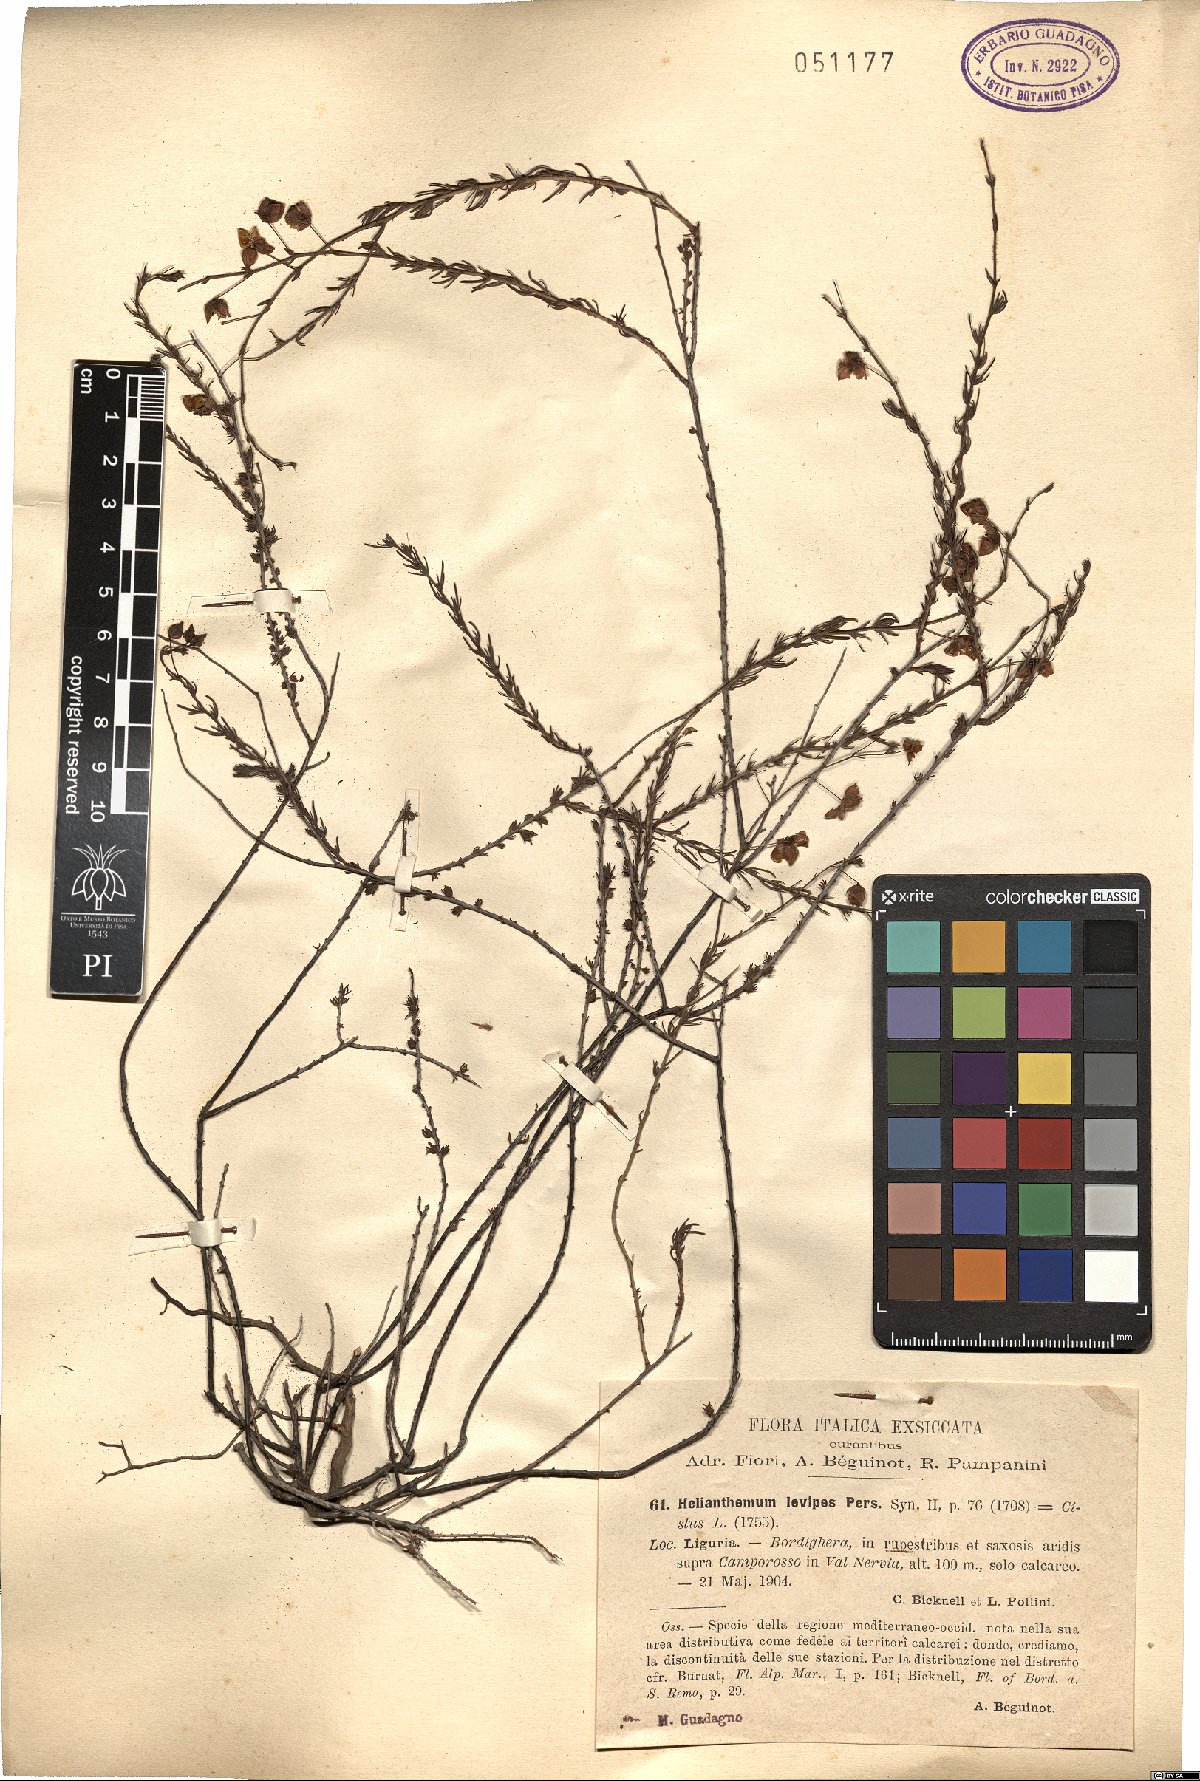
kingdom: Plantae
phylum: Tracheophyta
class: Magnoliopsida
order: Malvales
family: Cistaceae
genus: Fumana
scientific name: Fumana laevipes
